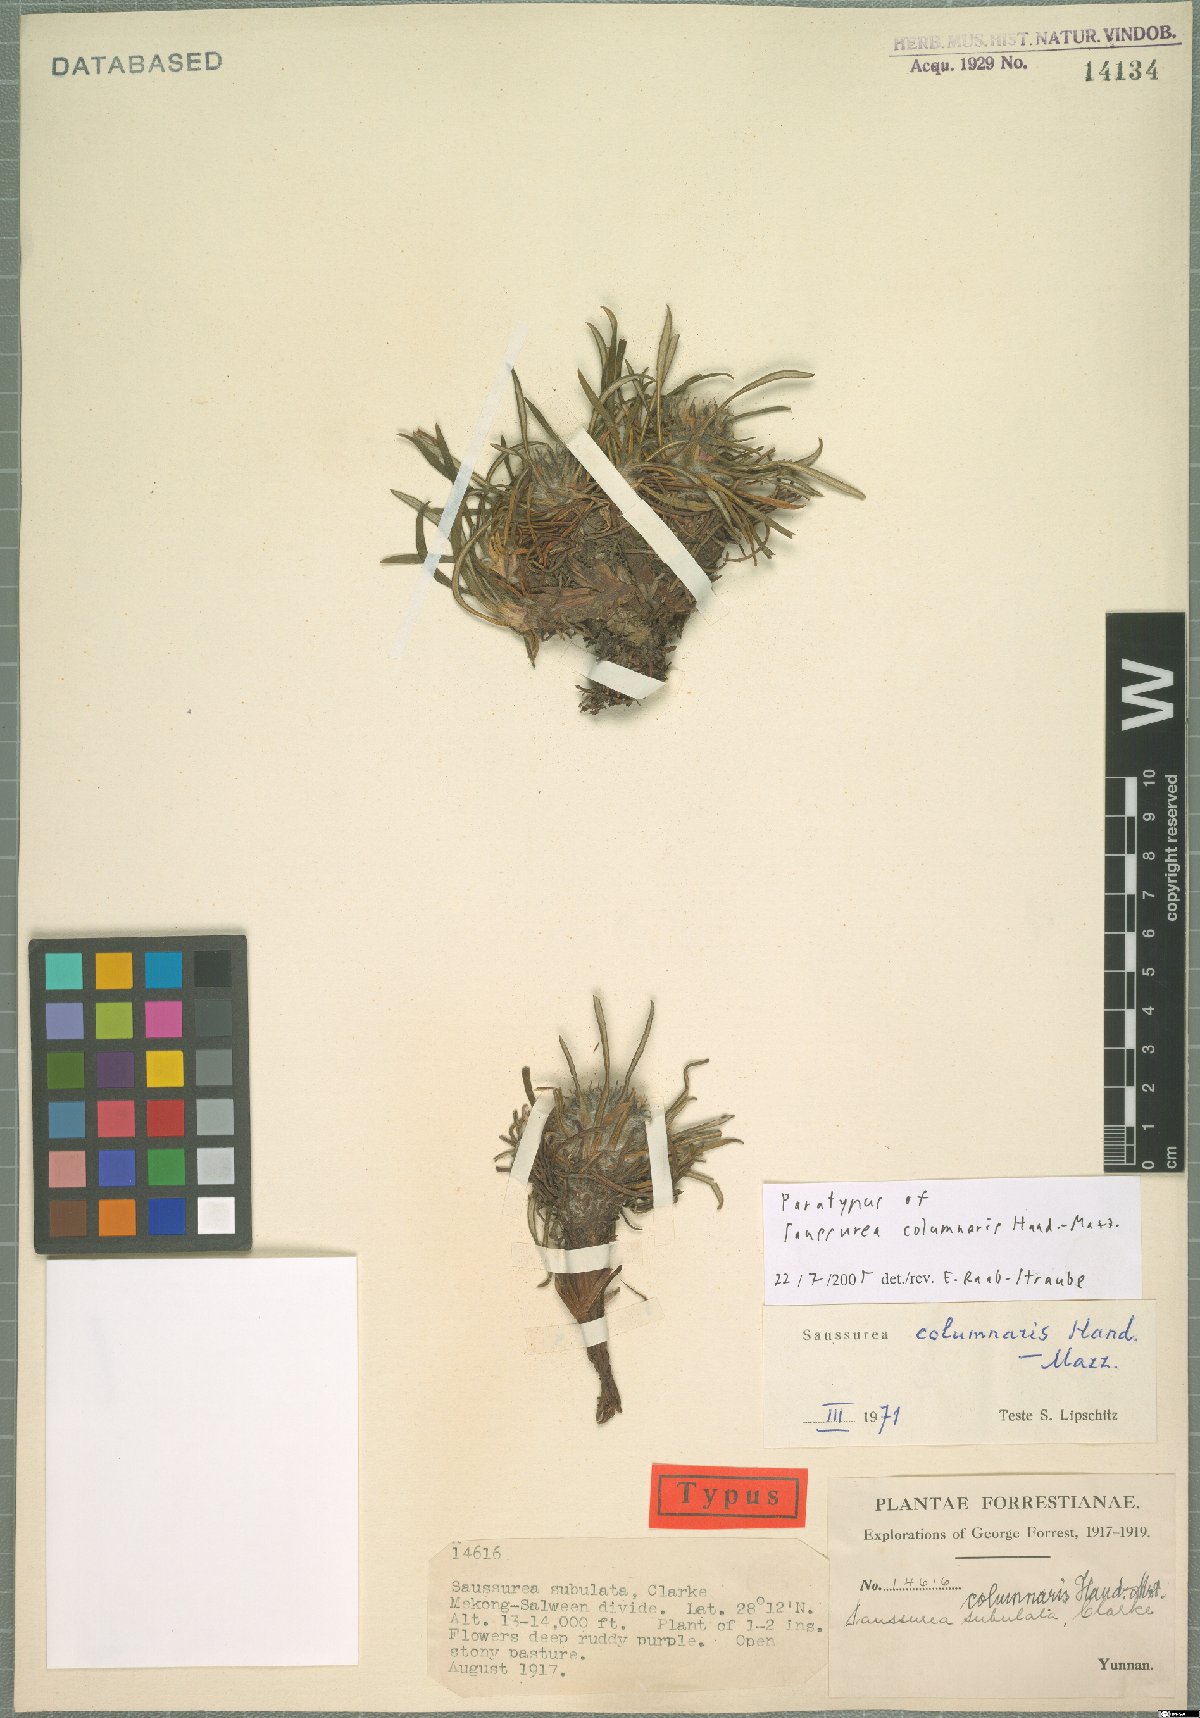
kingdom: Plantae
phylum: Tracheophyta
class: Magnoliopsida
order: Asterales
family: Asteraceae
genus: Saussurea
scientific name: Saussurea columnaris
